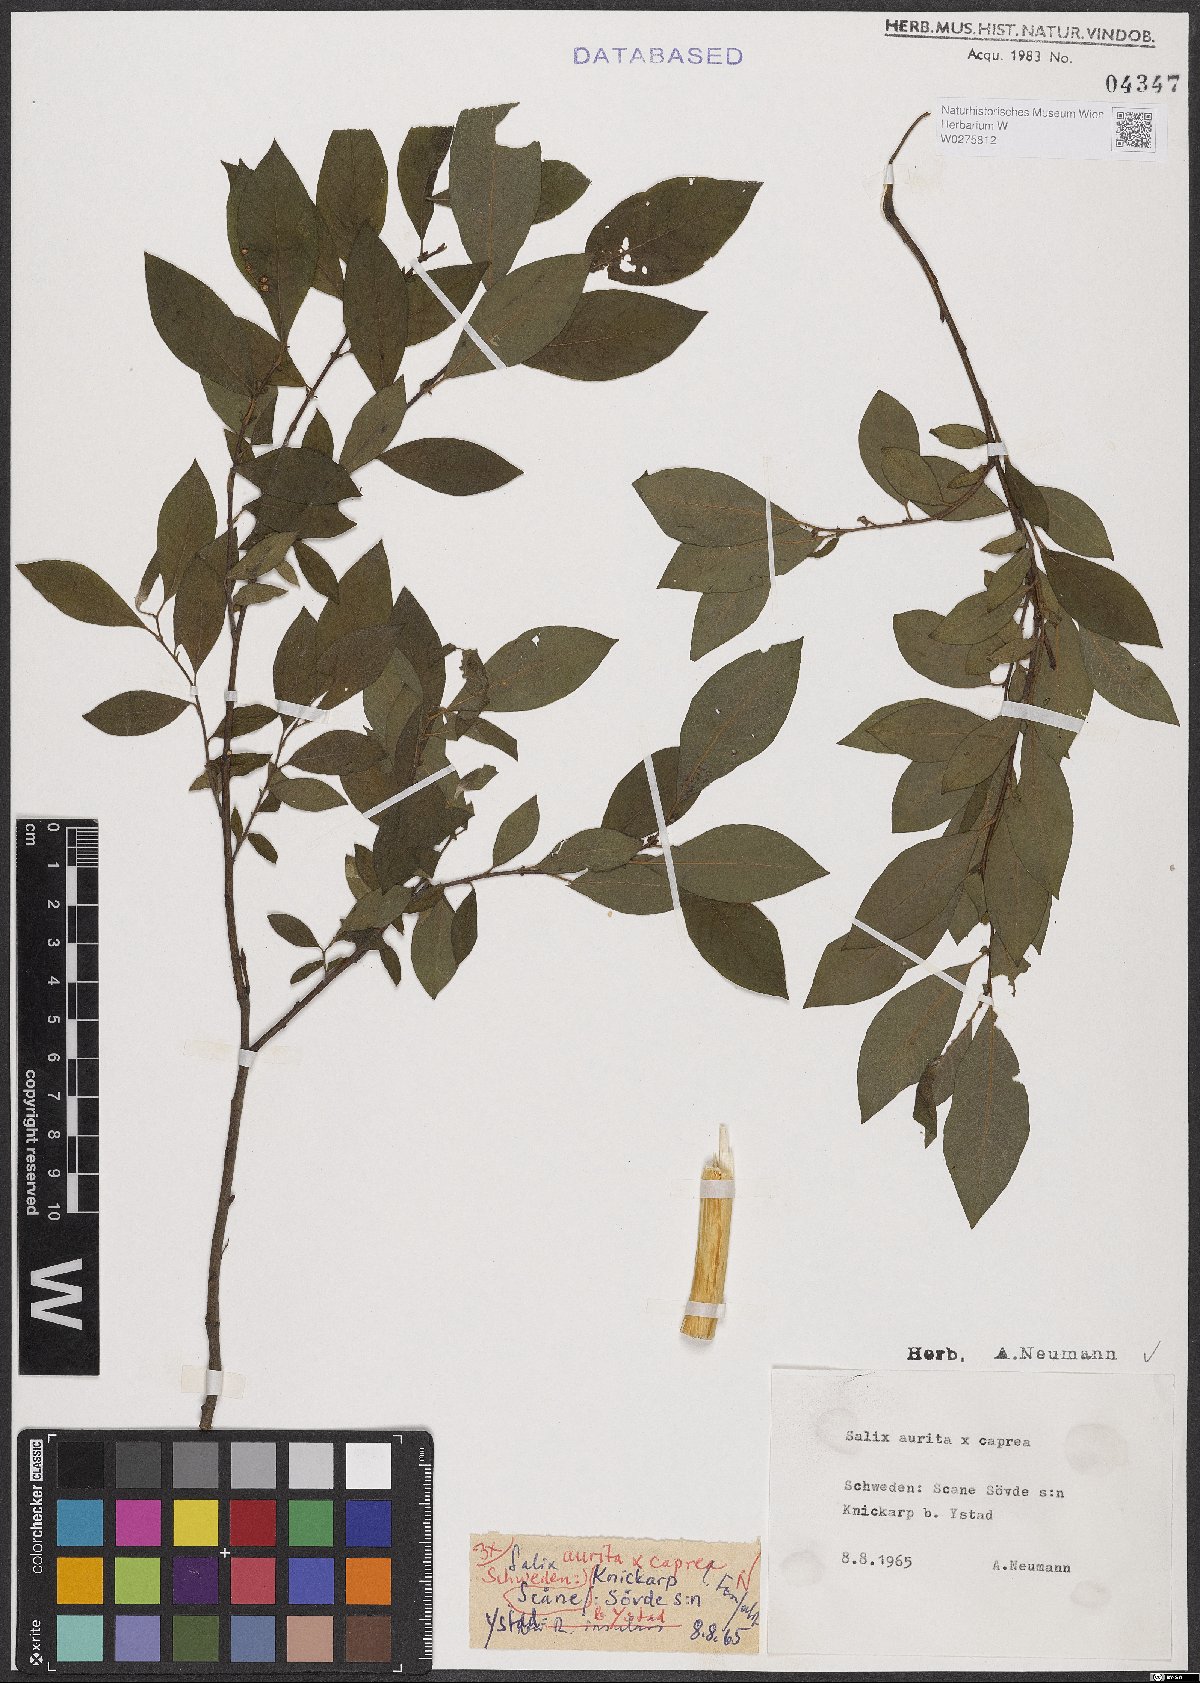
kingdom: Plantae
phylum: Tracheophyta
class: Magnoliopsida
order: Malpighiales
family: Salicaceae
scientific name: Salicaceae
